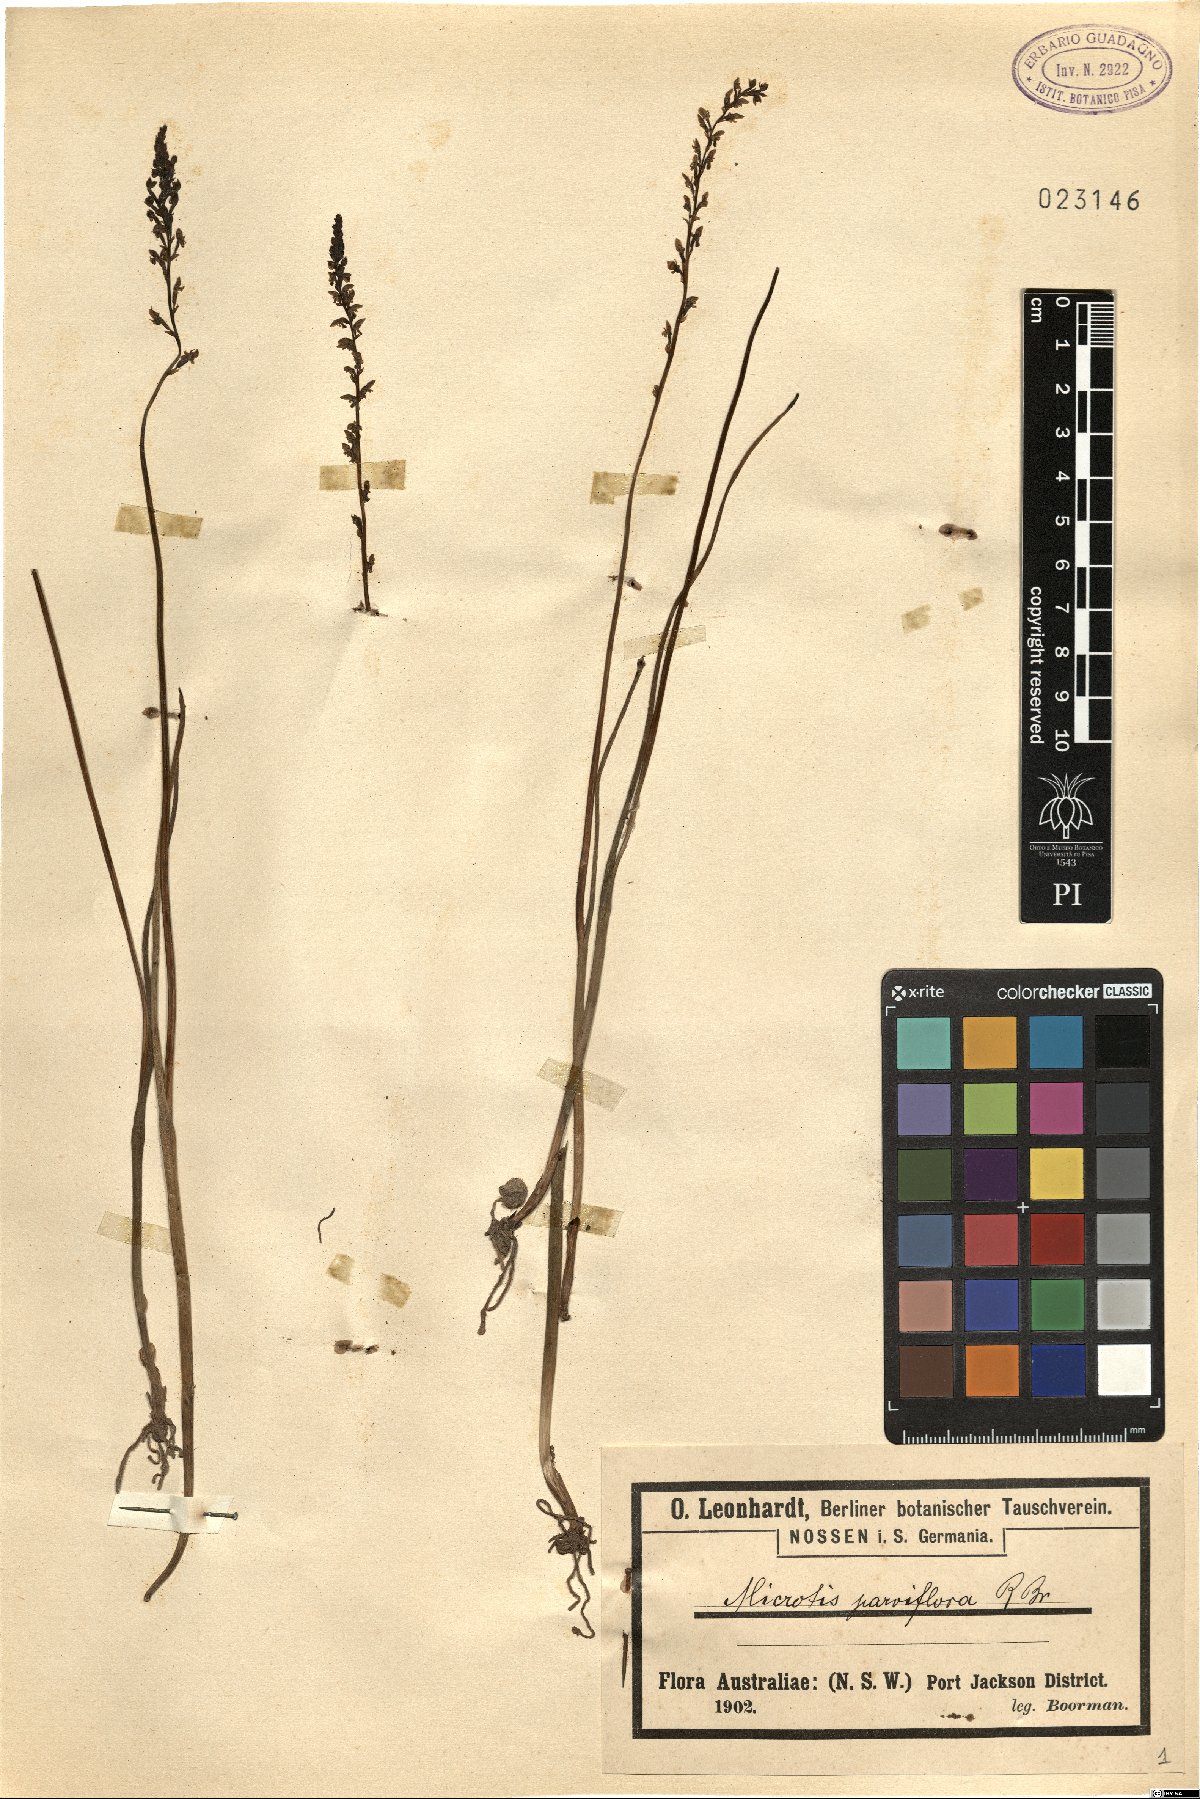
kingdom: Plantae
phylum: Tracheophyta
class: Liliopsida
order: Asparagales
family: Orchidaceae
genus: Microtis
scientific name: Microtis parviflora
